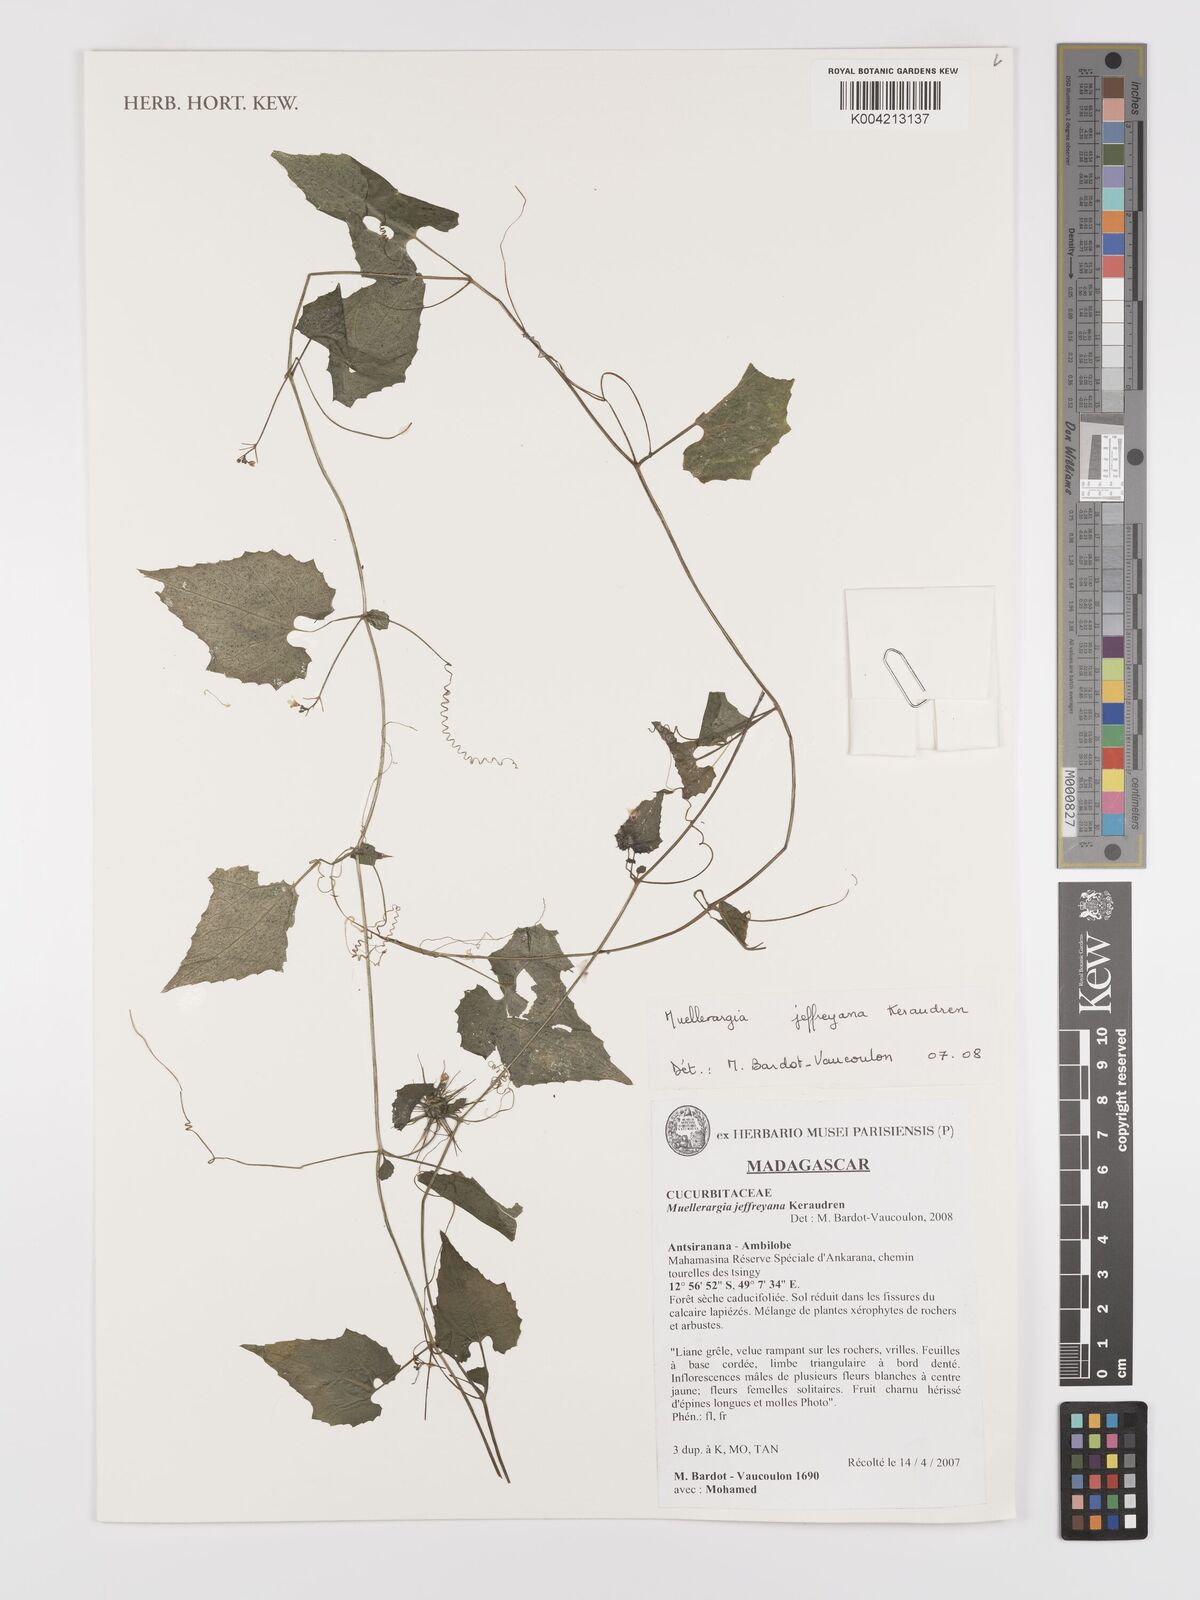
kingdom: Plantae
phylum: Tracheophyta
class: Magnoliopsida
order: Cucurbitales
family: Cucurbitaceae
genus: Muellerargia
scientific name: Muellerargia jeffreyana
